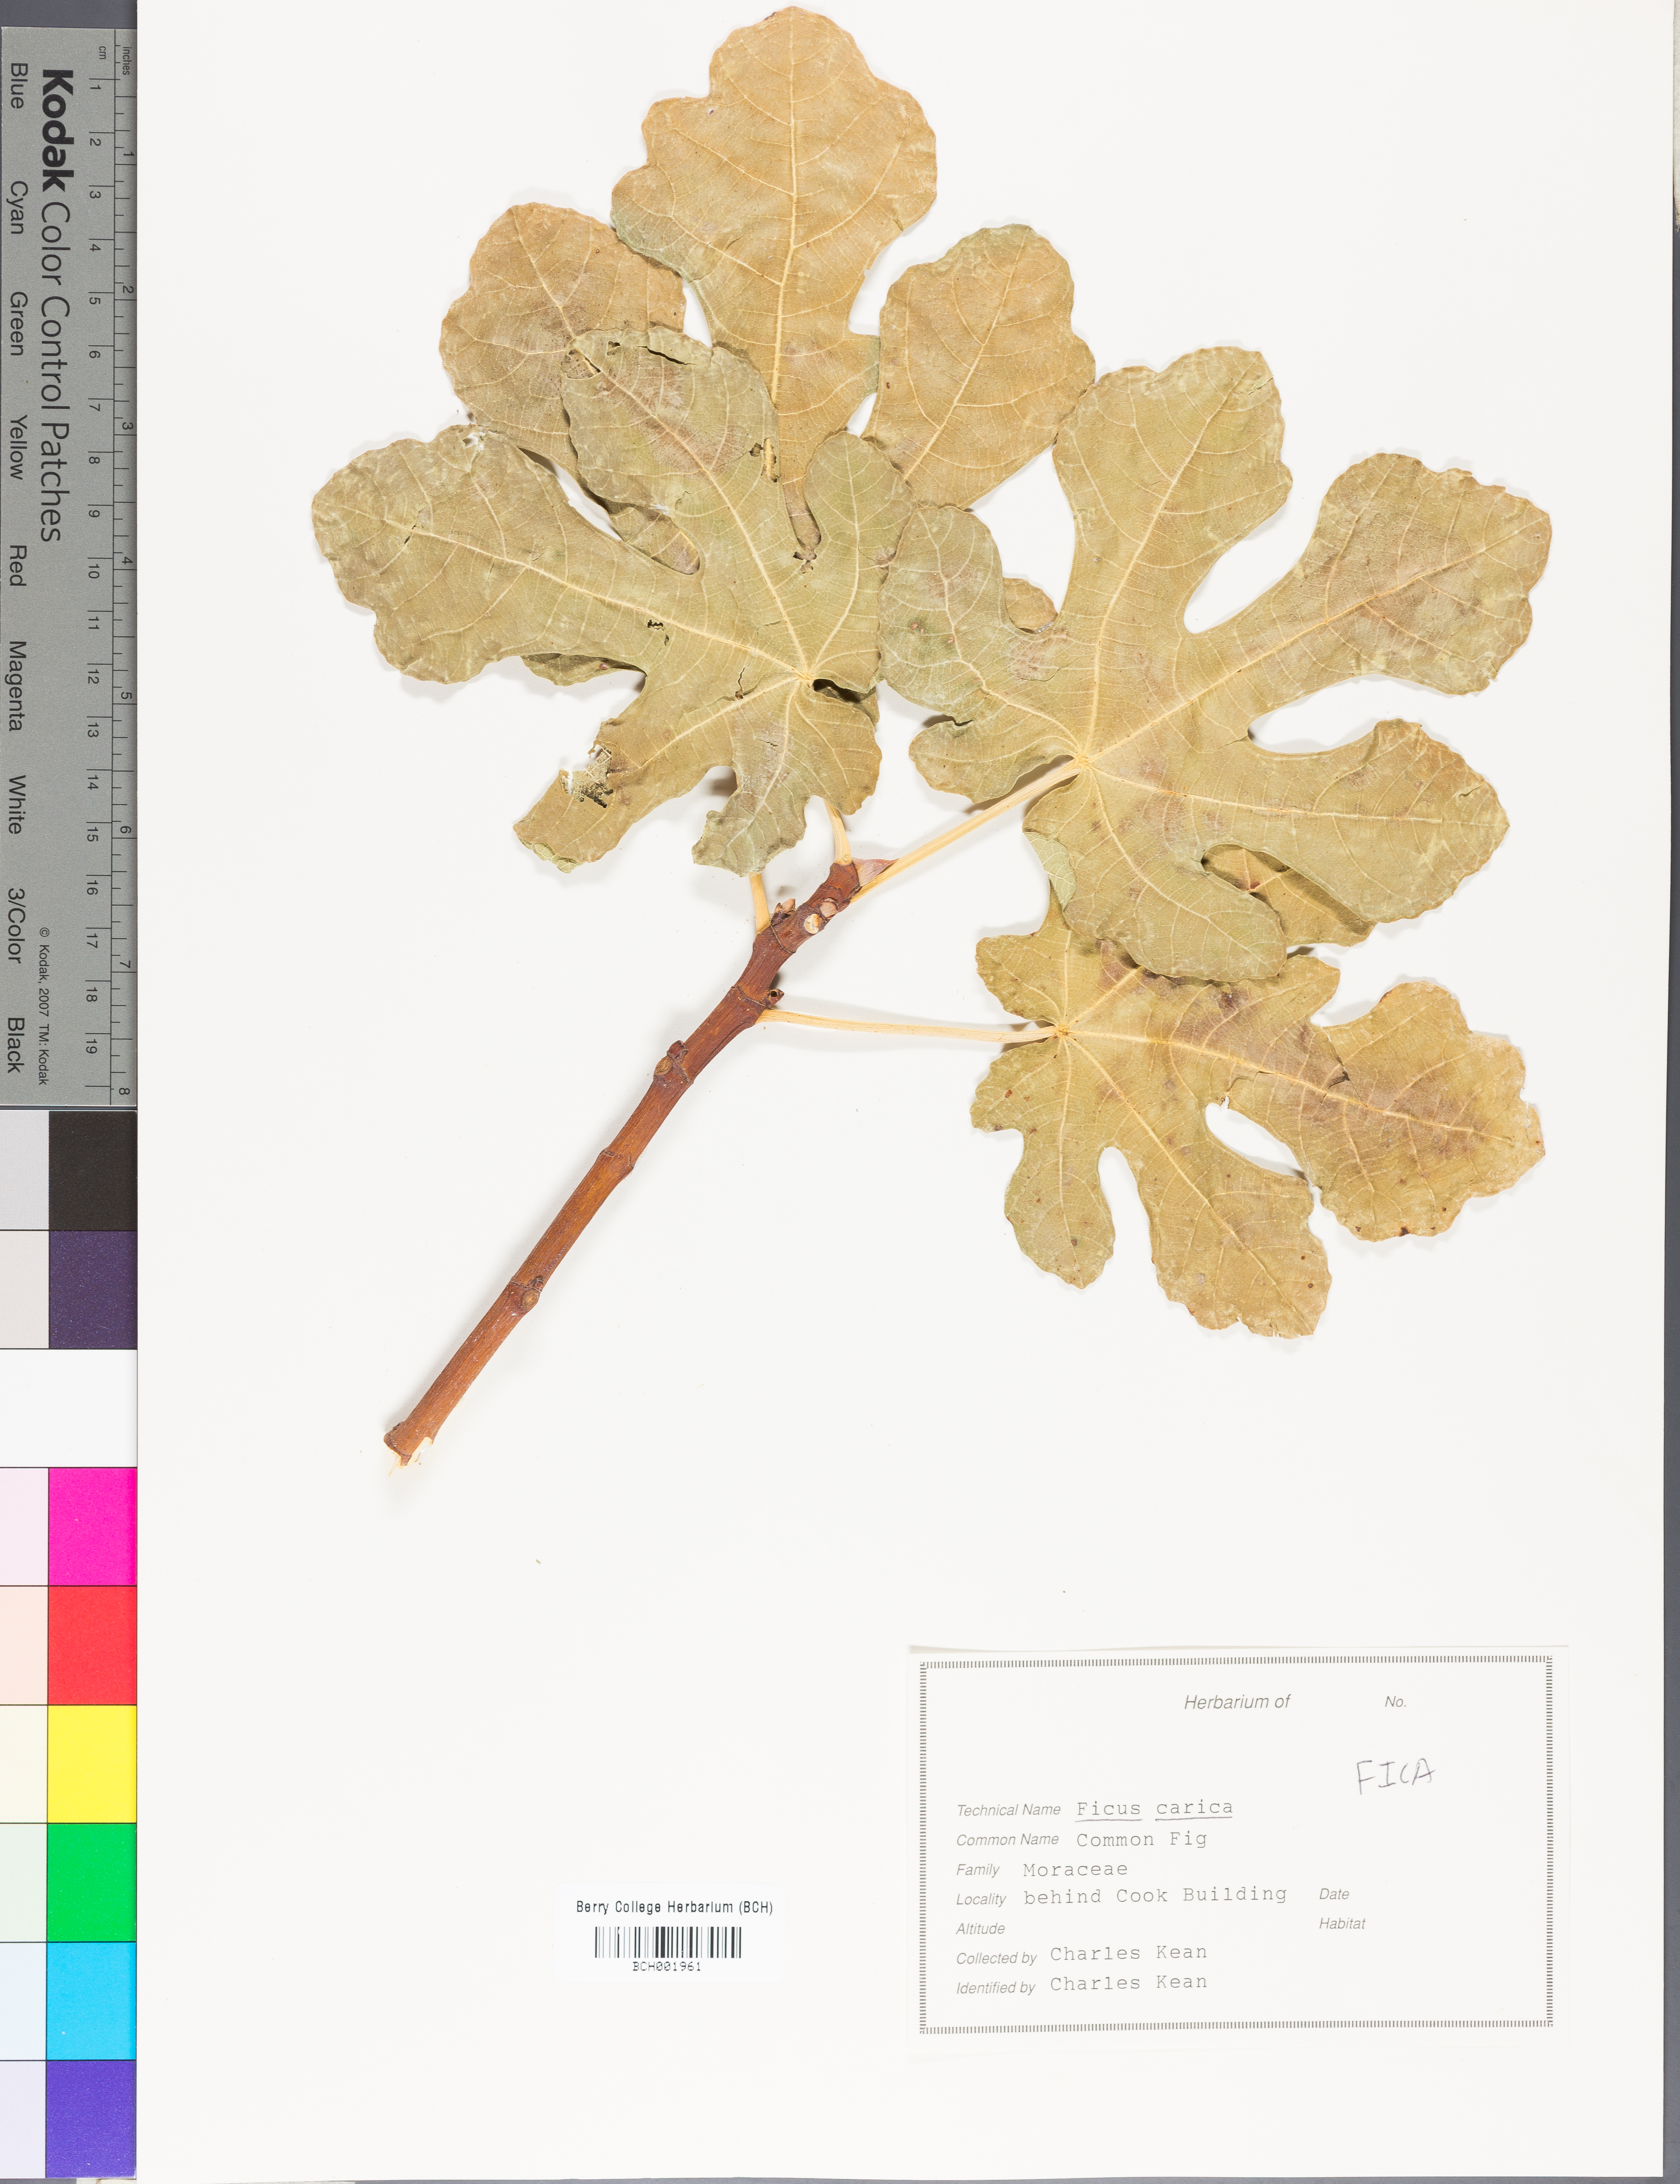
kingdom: Plantae
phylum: Tracheophyta
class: Magnoliopsida
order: Rosales
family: Moraceae
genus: Ficus
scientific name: Ficus carica
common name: Fig
